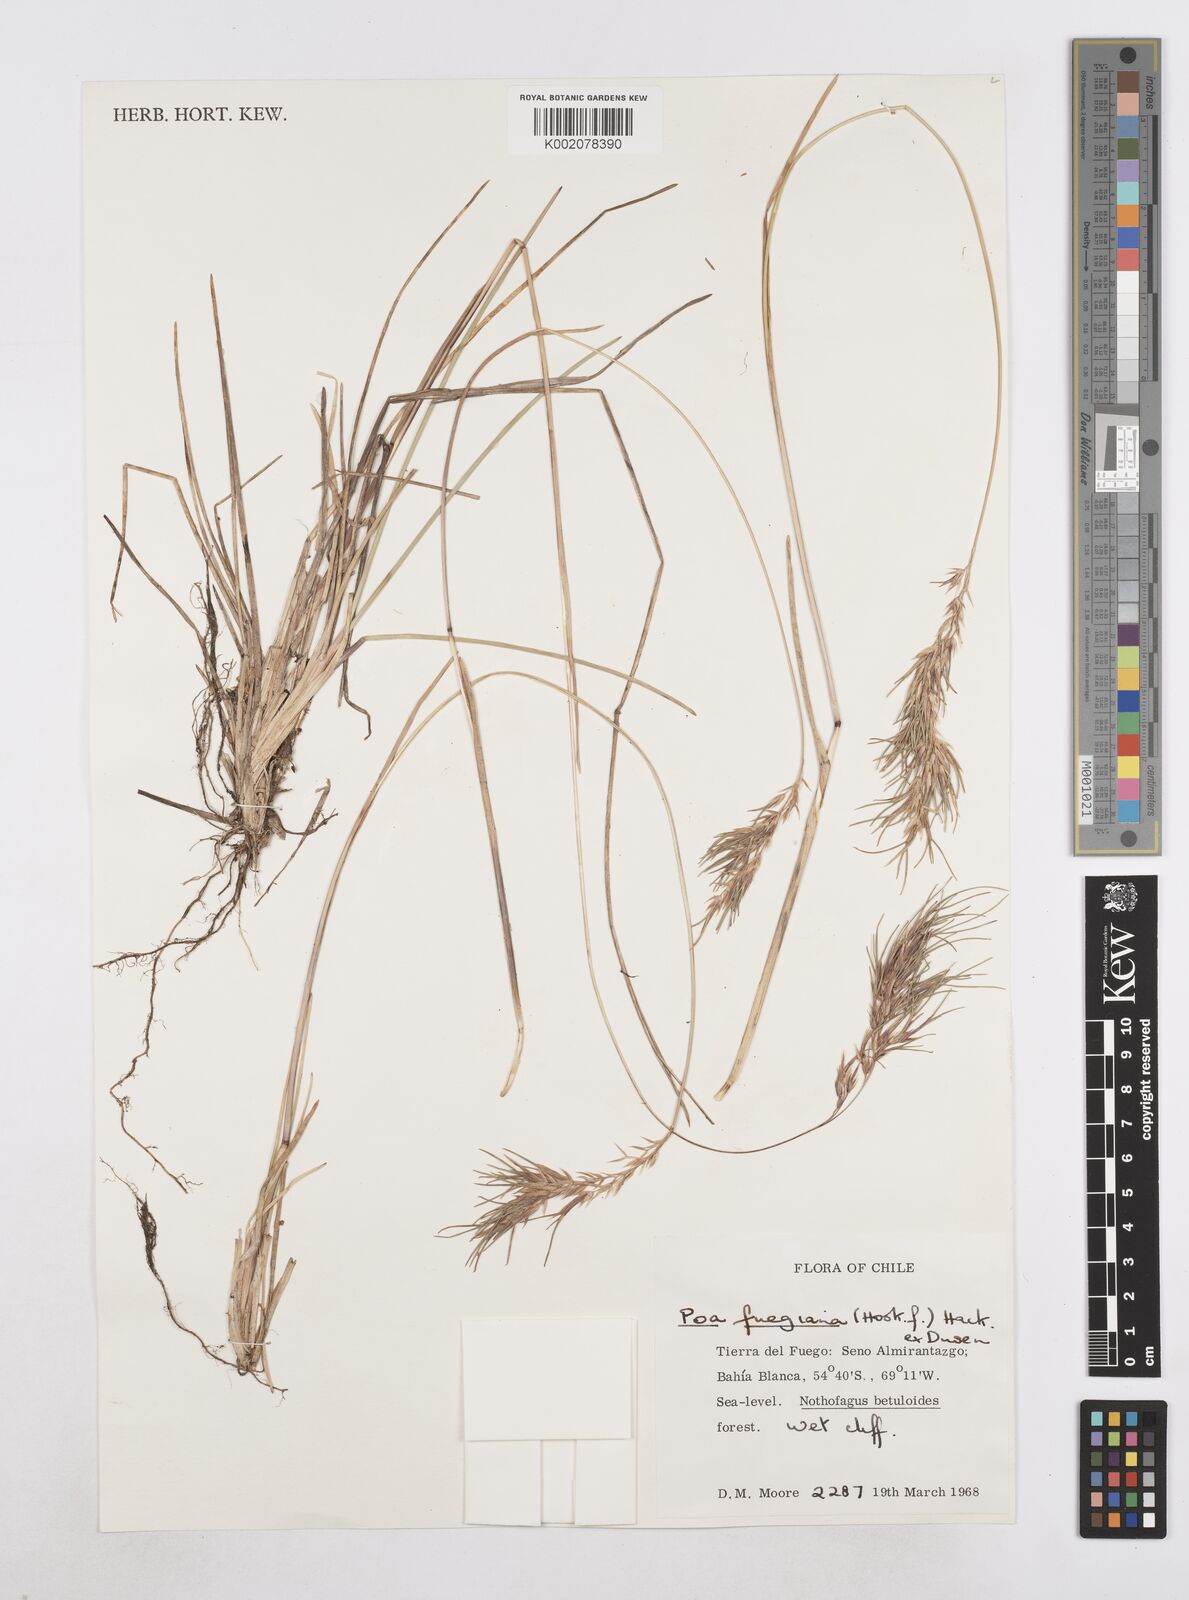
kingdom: Plantae
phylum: Tracheophyta
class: Liliopsida
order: Poales
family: Poaceae
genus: Poa
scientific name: Poa alopecurus
